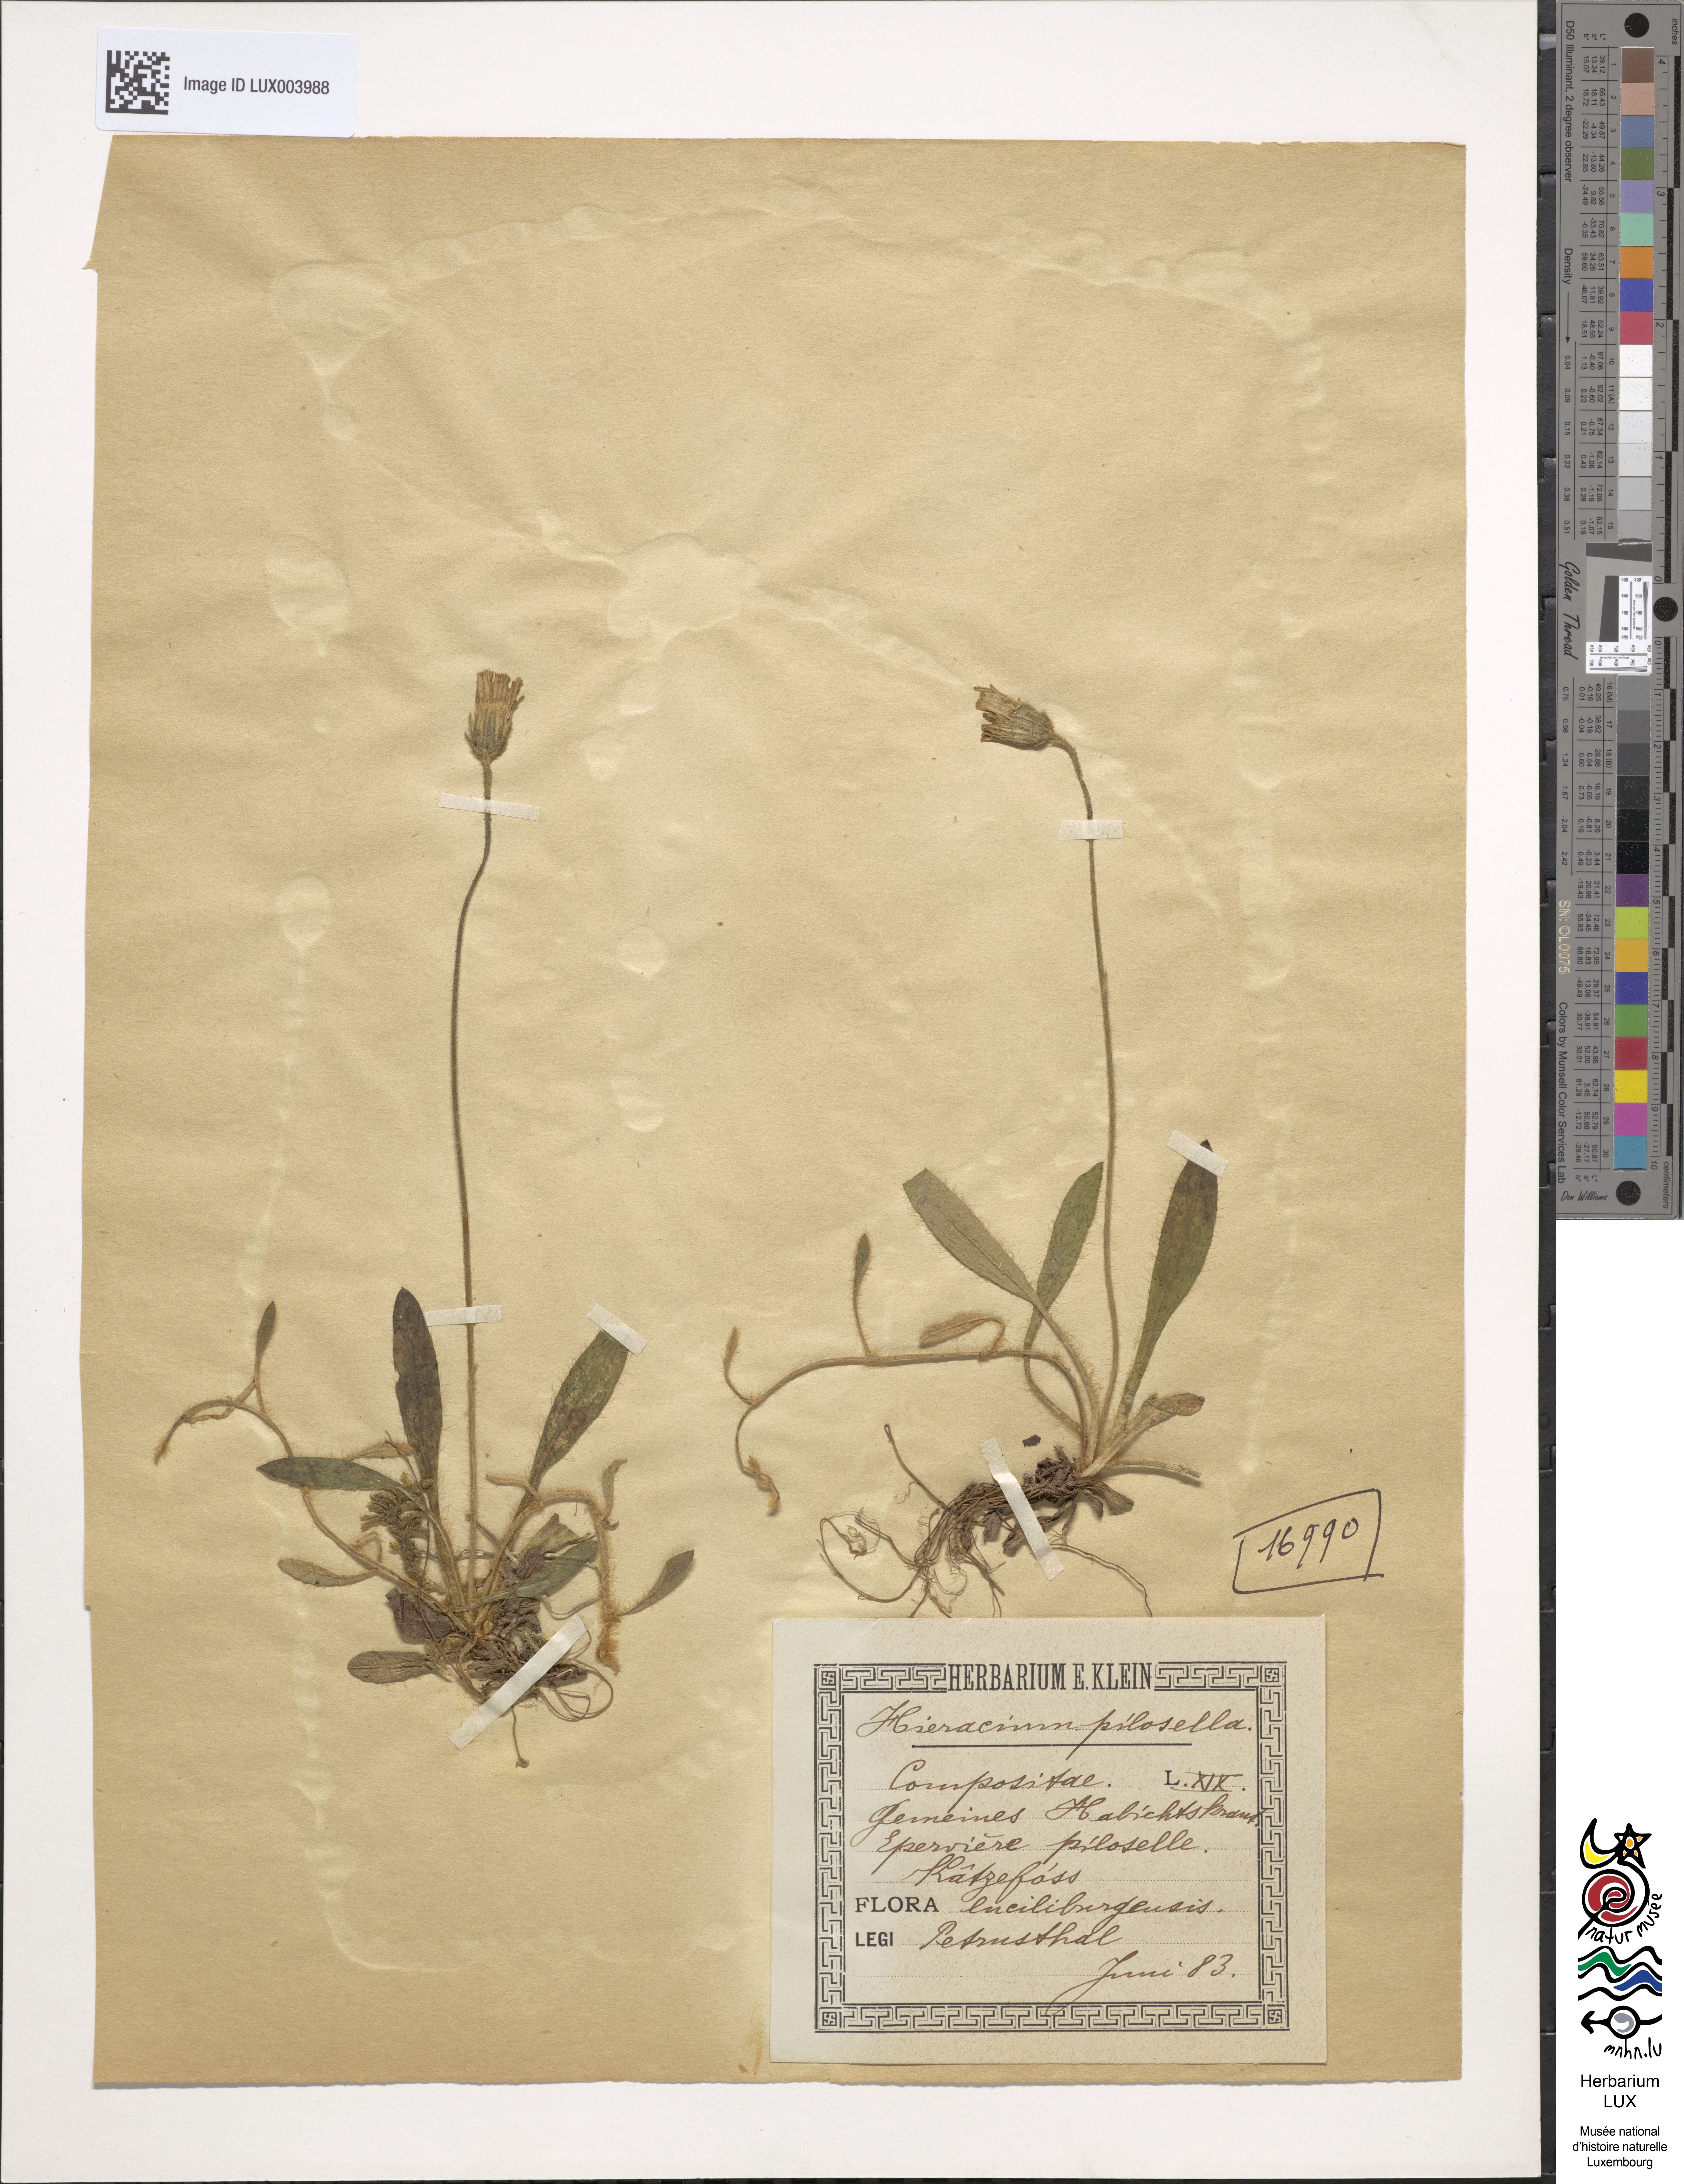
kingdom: Plantae
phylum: Tracheophyta
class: Magnoliopsida
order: Asterales
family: Asteraceae
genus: Pilosella
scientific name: Pilosella officinarum
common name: Mouse-ear hawkweed
